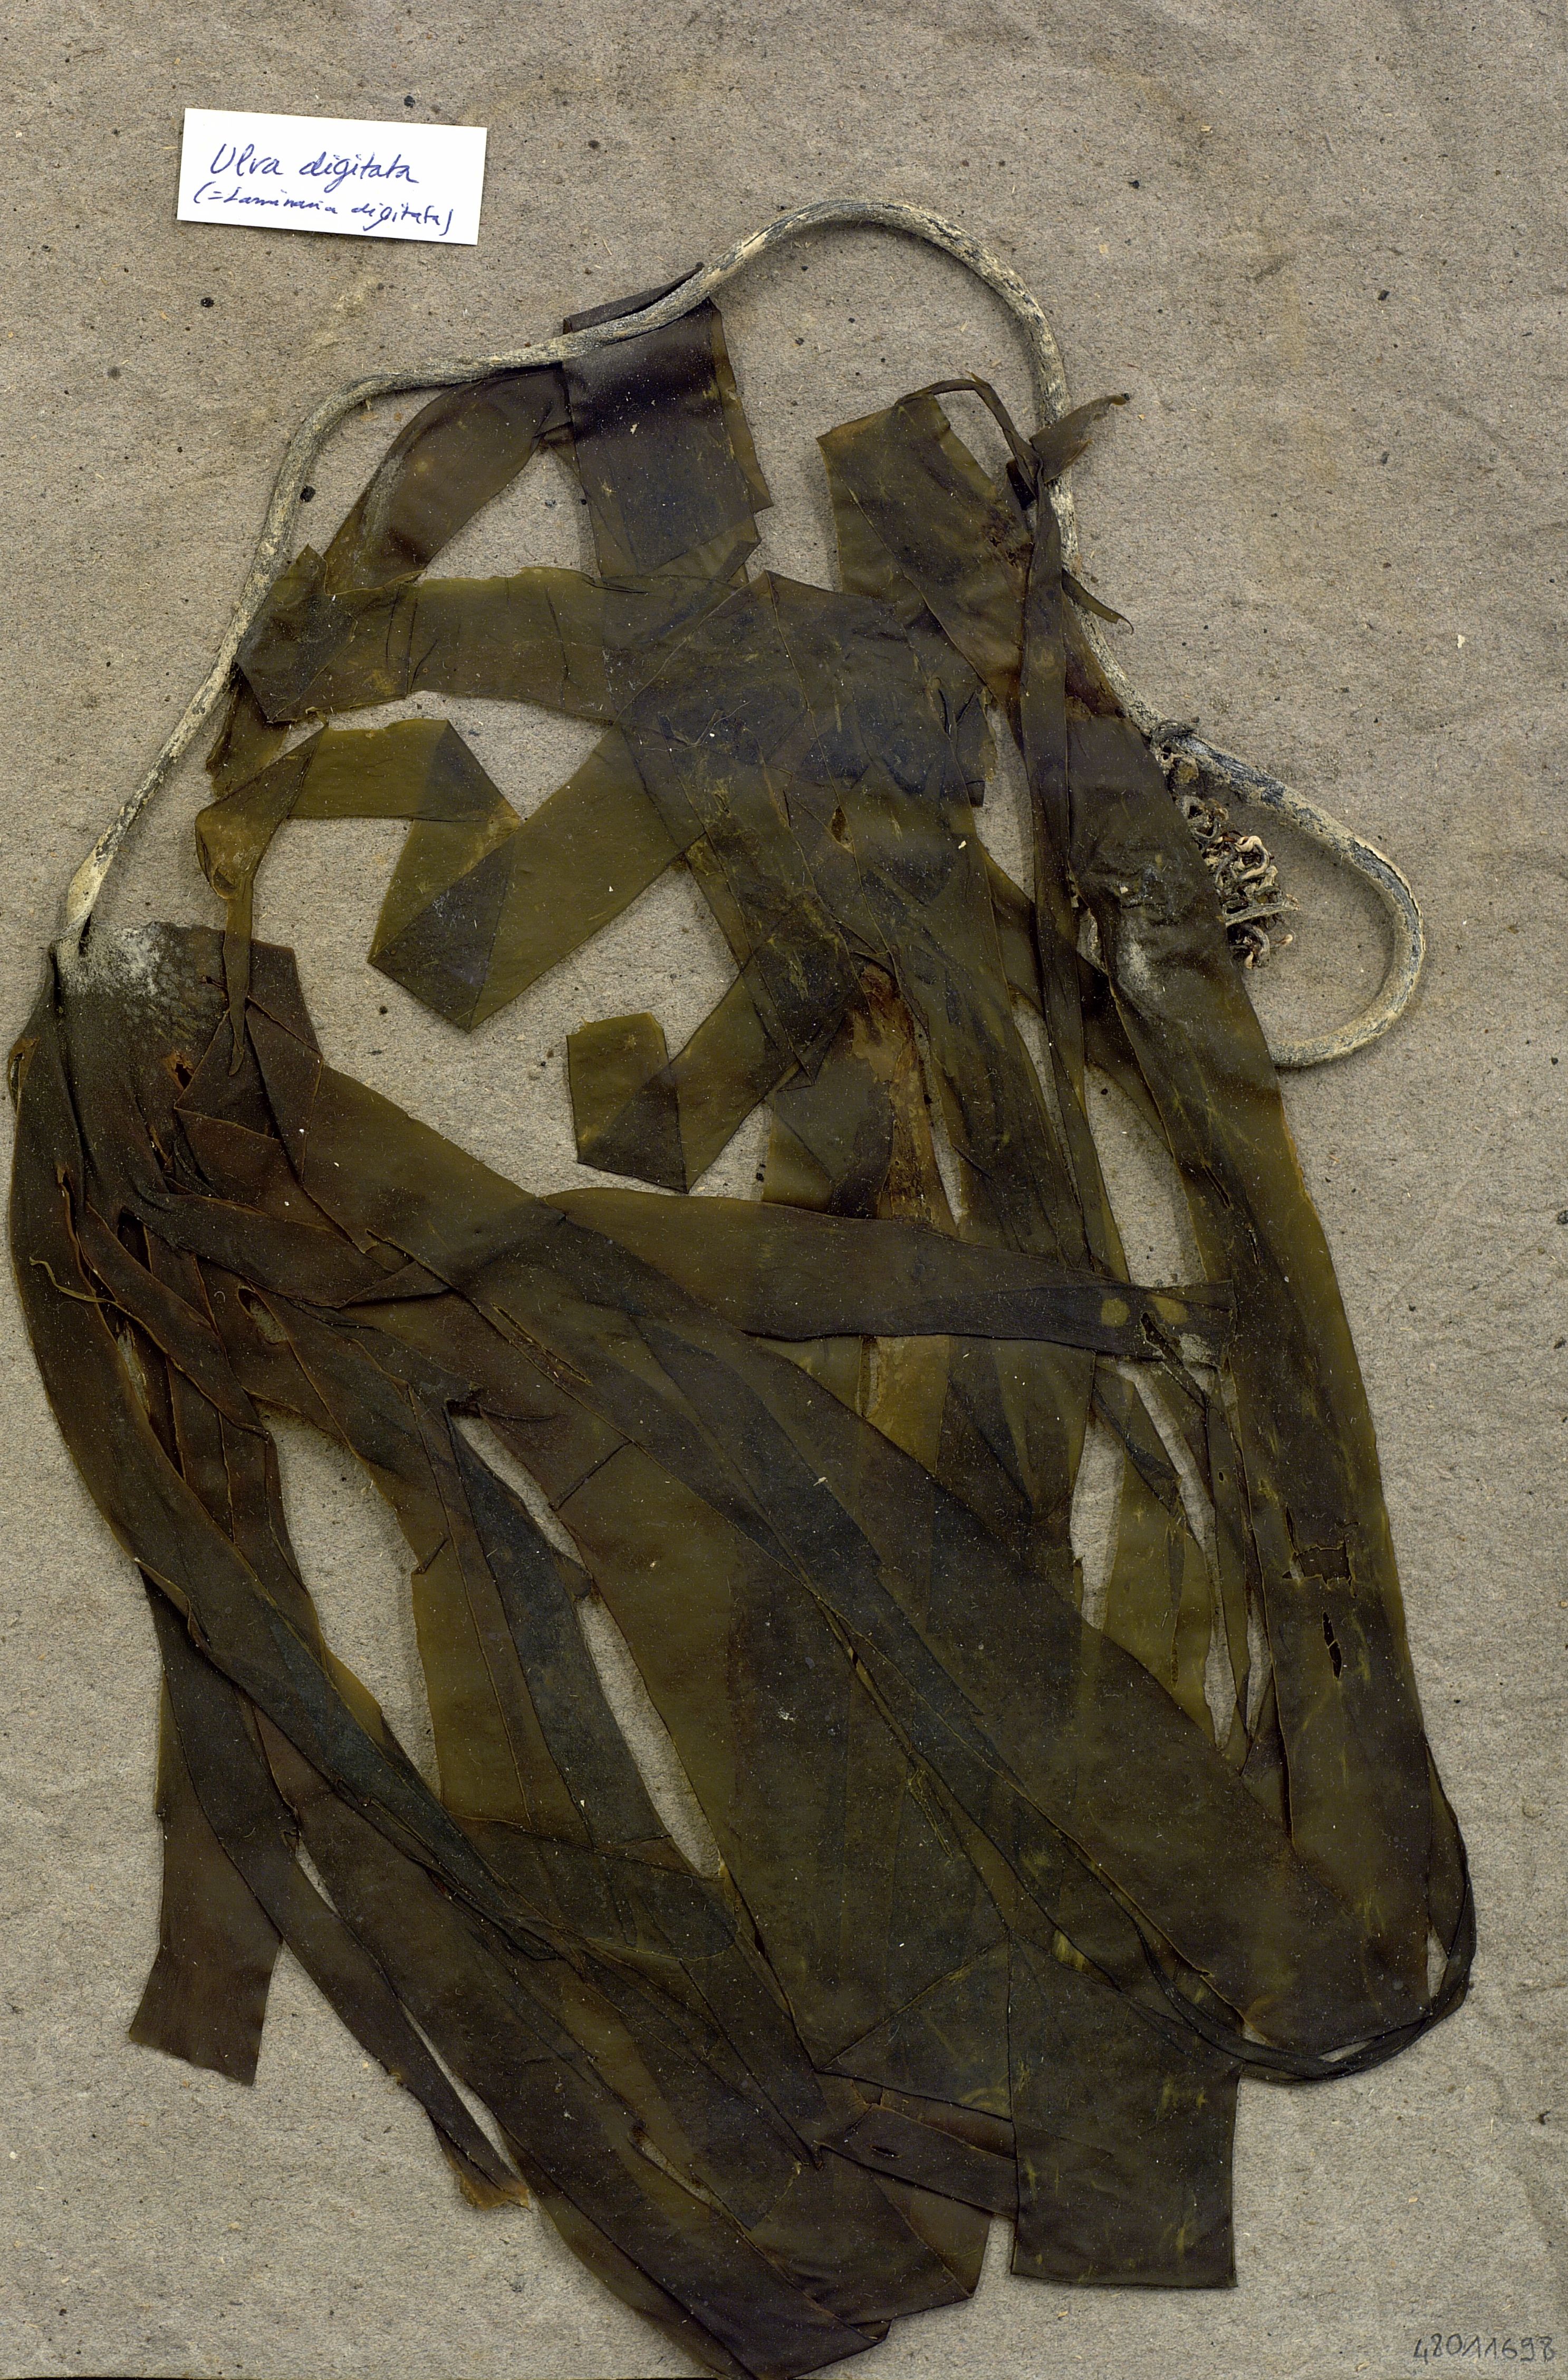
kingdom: Plantae
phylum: Chlorophyta
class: Ulvophyceae
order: Ulvales
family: Ulvaceae
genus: Ulva
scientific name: Ulva
